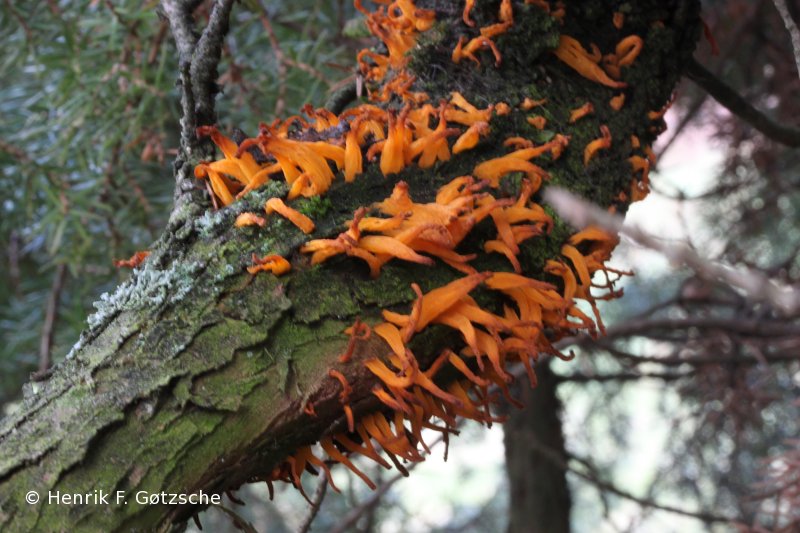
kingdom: Fungi
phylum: Basidiomycota
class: Pucciniomycetes
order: Pucciniales
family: Gymnosporangiaceae
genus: Gymnosporangium
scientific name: Gymnosporangium clavariiforme
